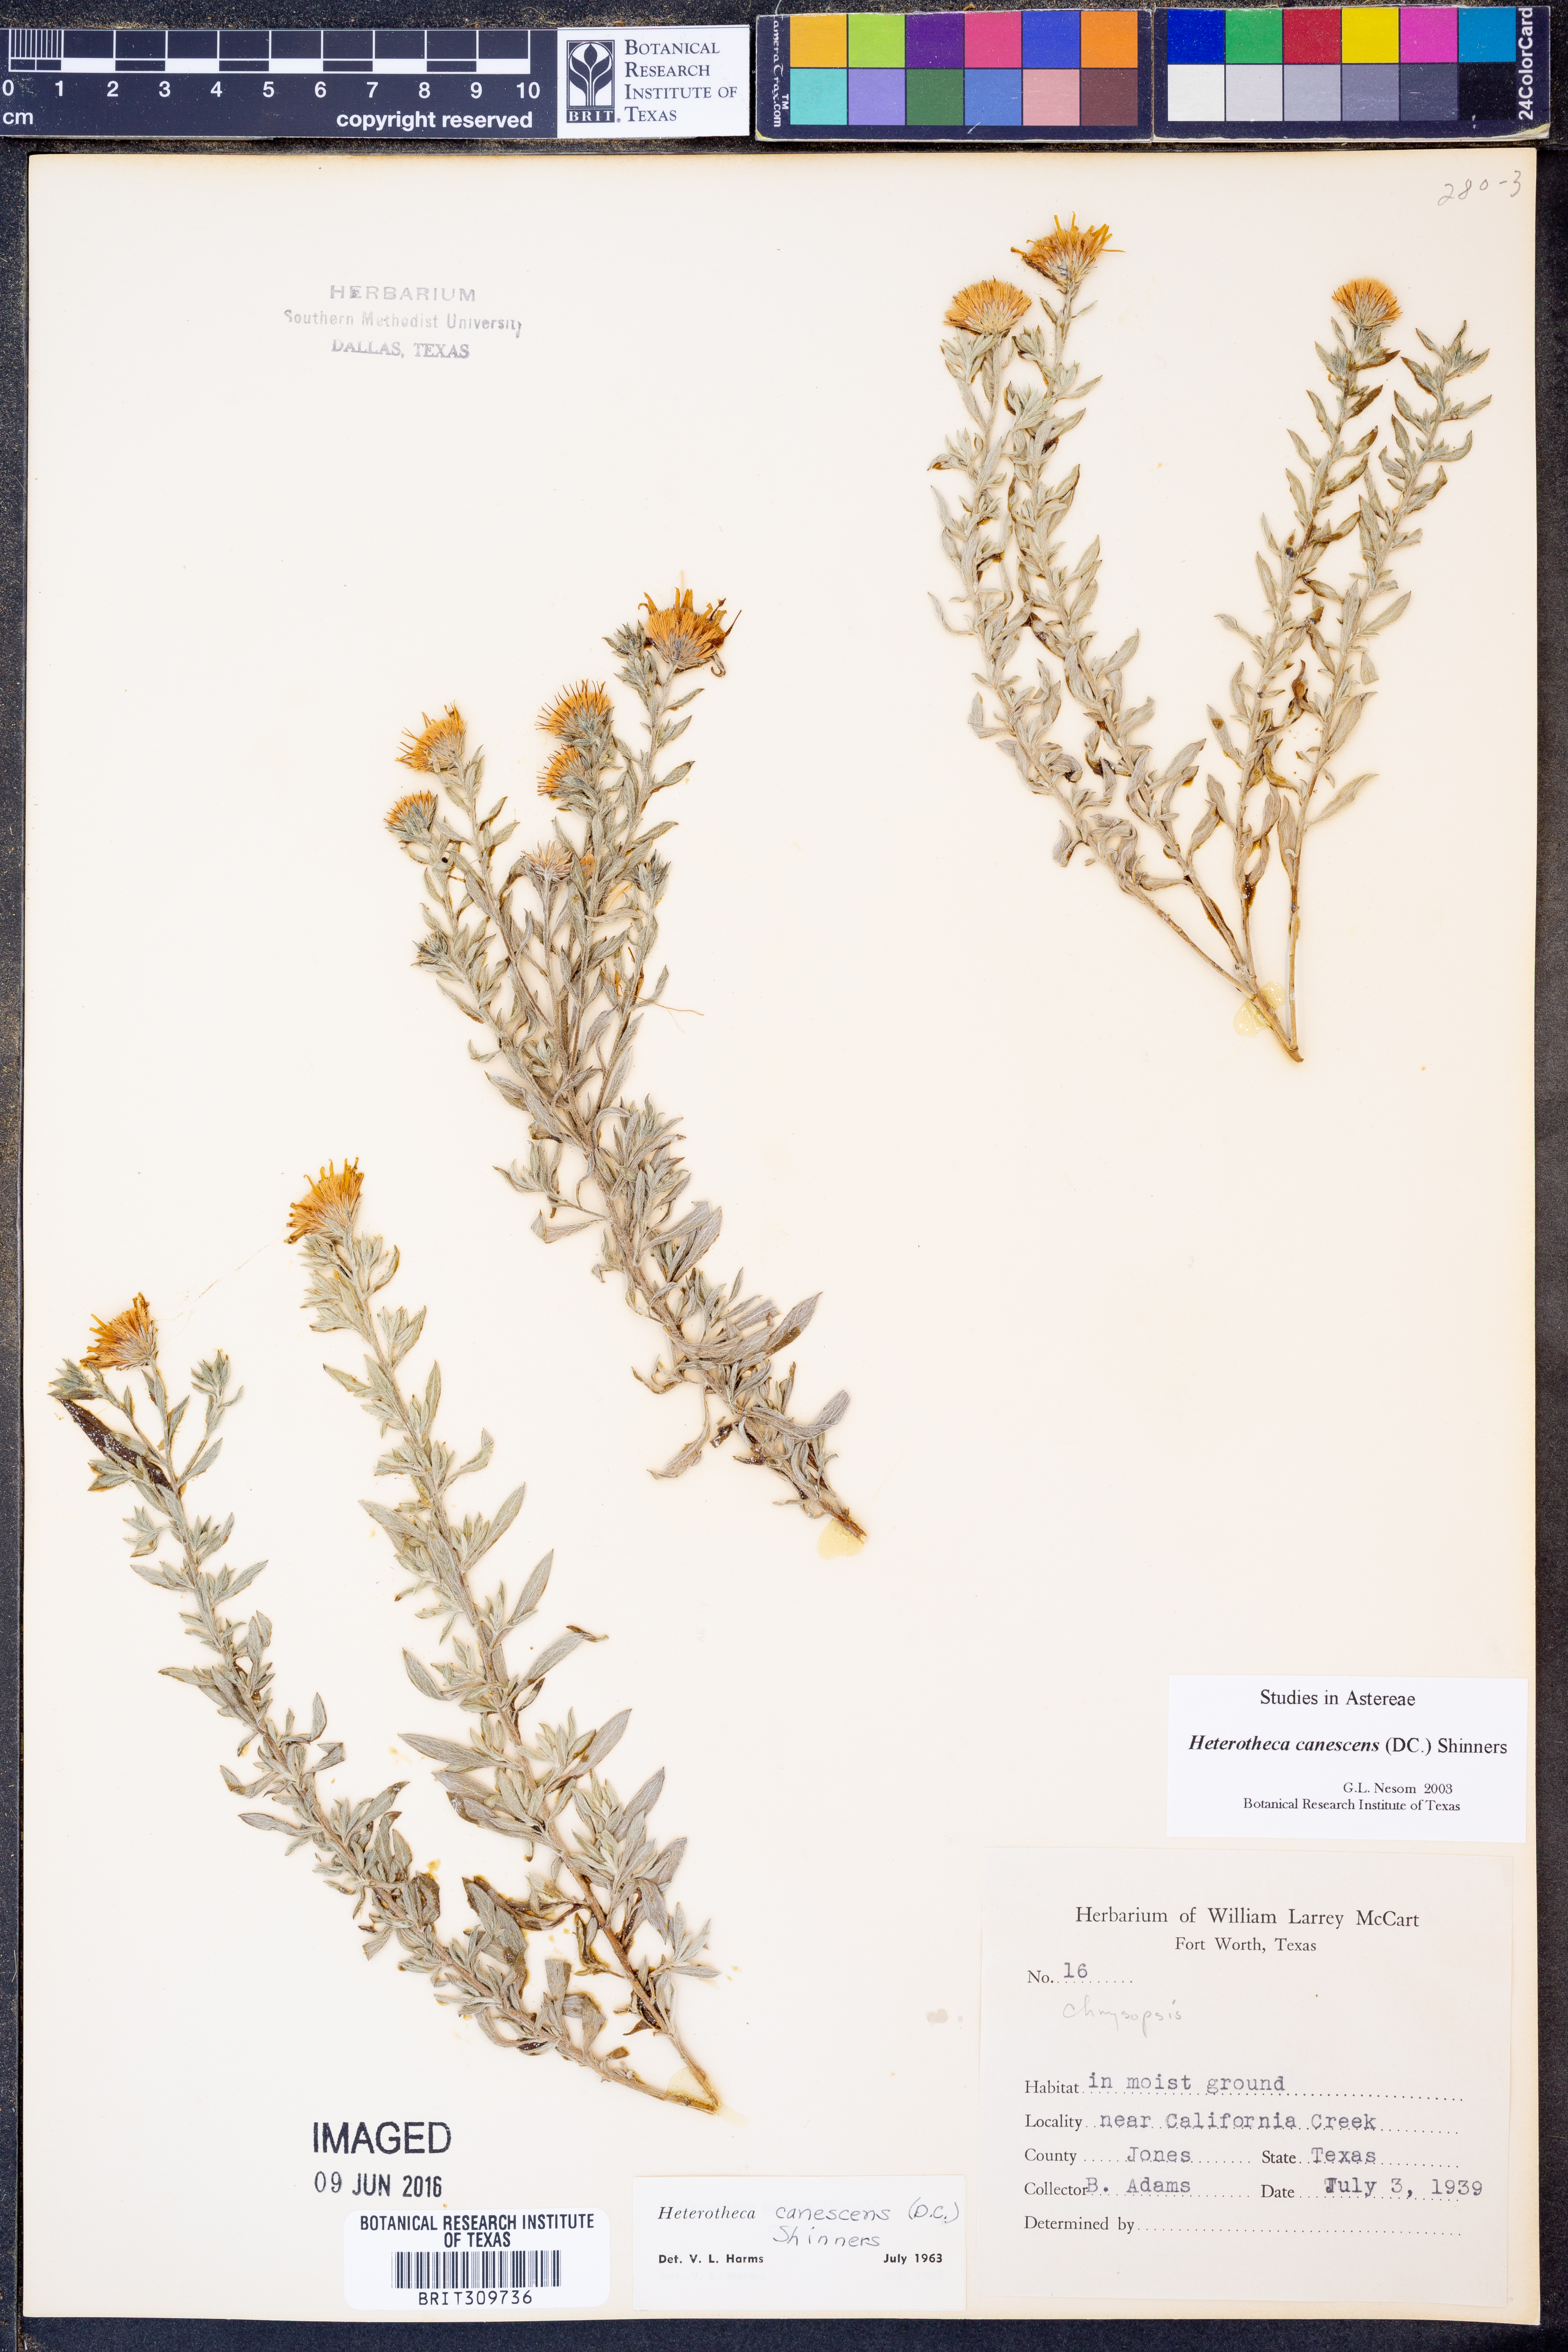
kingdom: Plantae
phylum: Tracheophyta
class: Magnoliopsida
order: Asterales
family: Asteraceae
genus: Heterotheca
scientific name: Heterotheca canescens
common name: Hoary golden-aster
